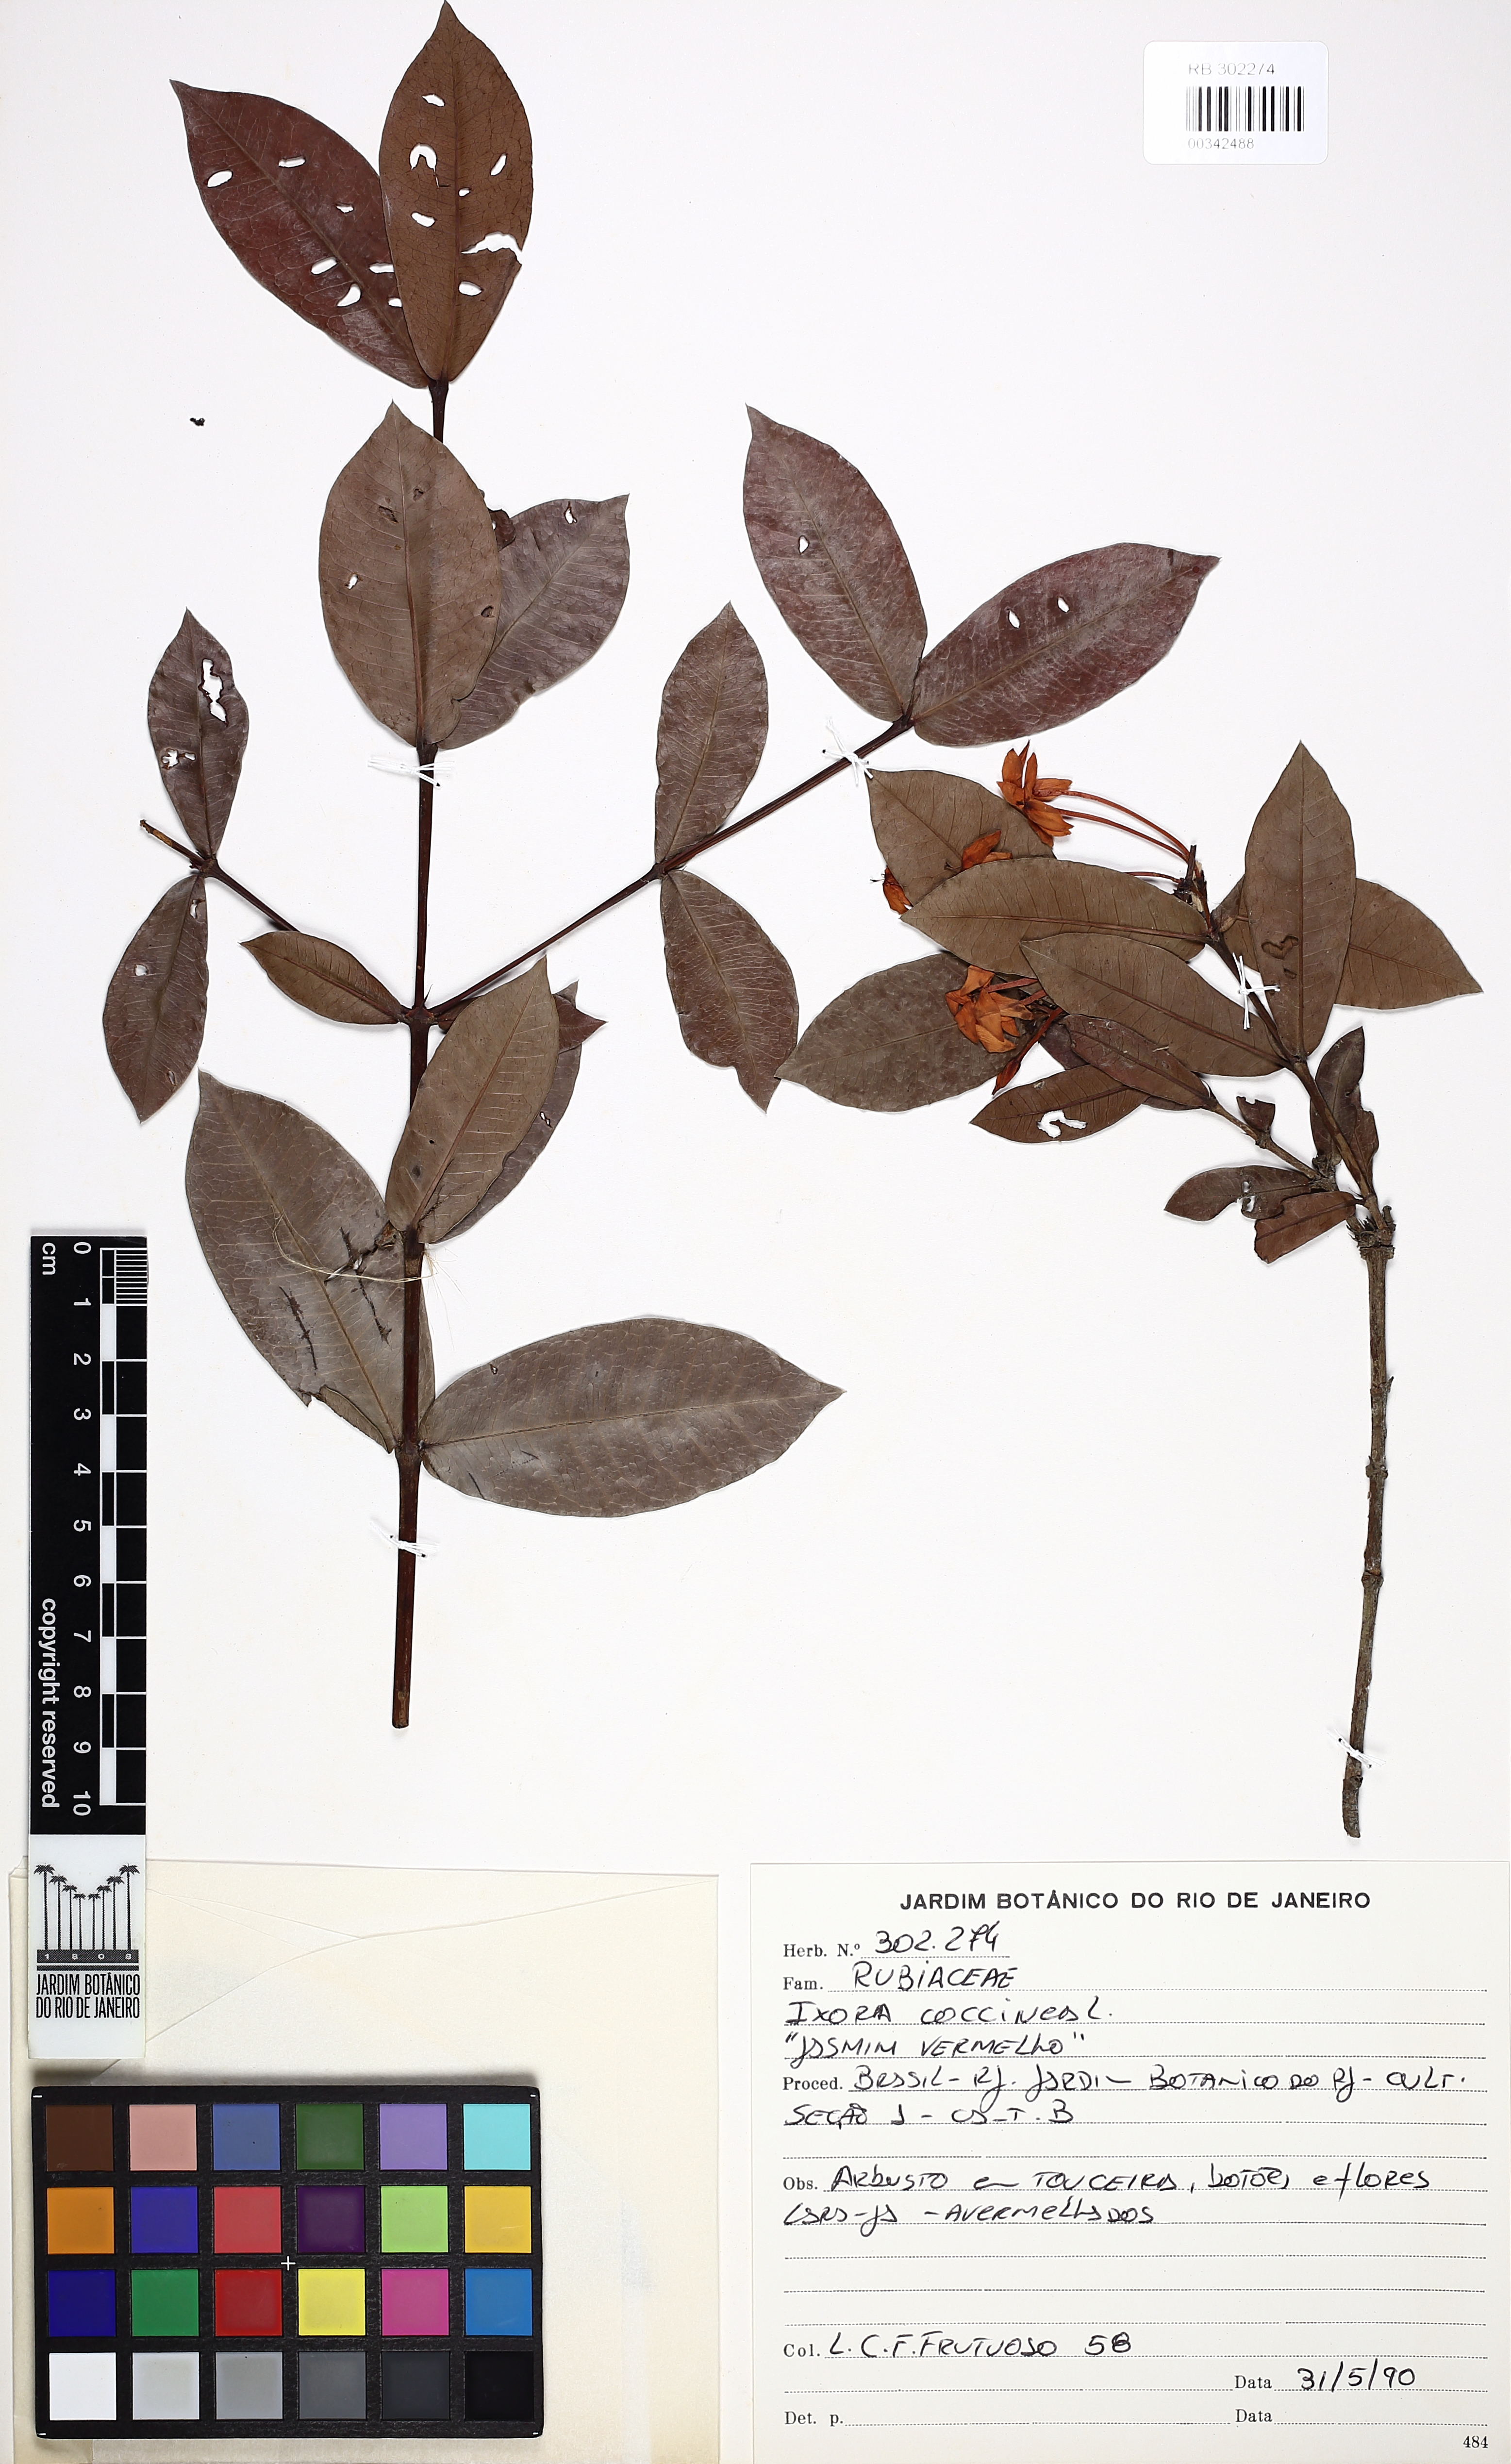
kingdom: Plantae
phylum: Tracheophyta
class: Magnoliopsida
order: Gentianales
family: Rubiaceae
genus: Ixora
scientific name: Ixora coccinea
